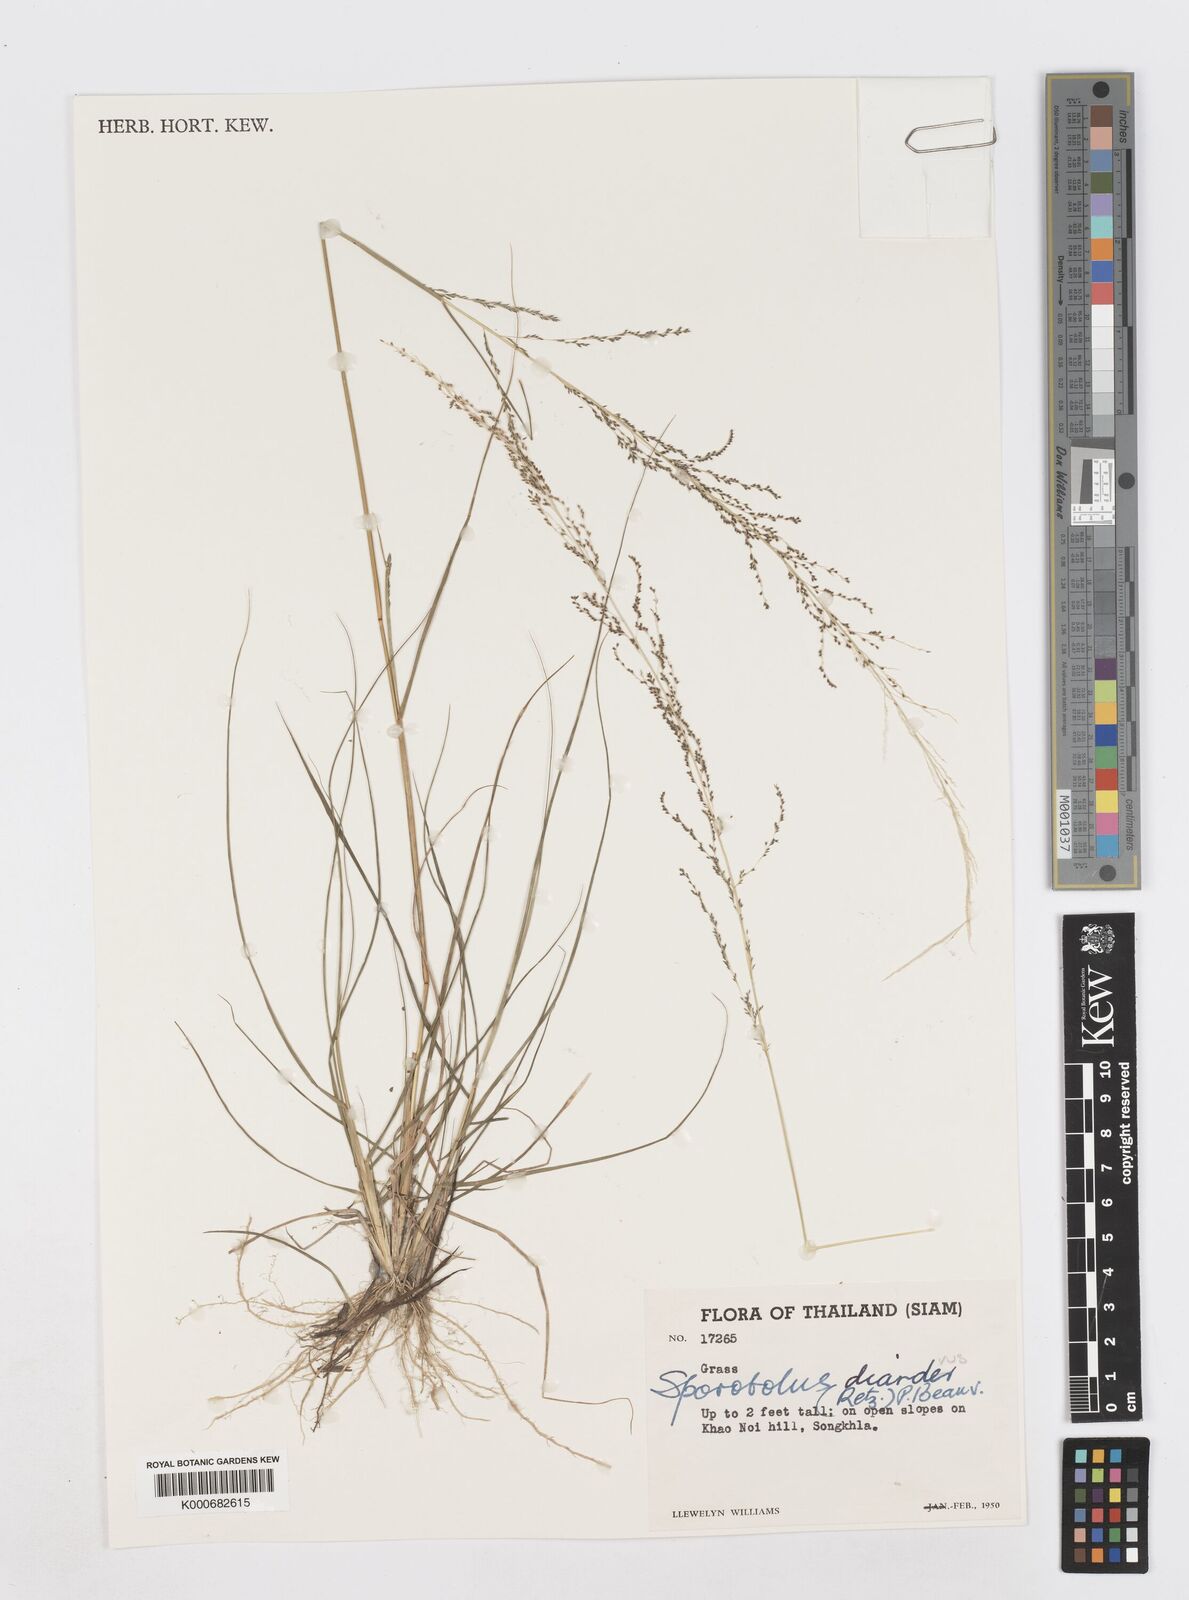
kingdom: Plantae
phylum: Tracheophyta
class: Liliopsida
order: Poales
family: Poaceae
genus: Sporobolus
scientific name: Sporobolus diandrus
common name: Tussock dropseed
